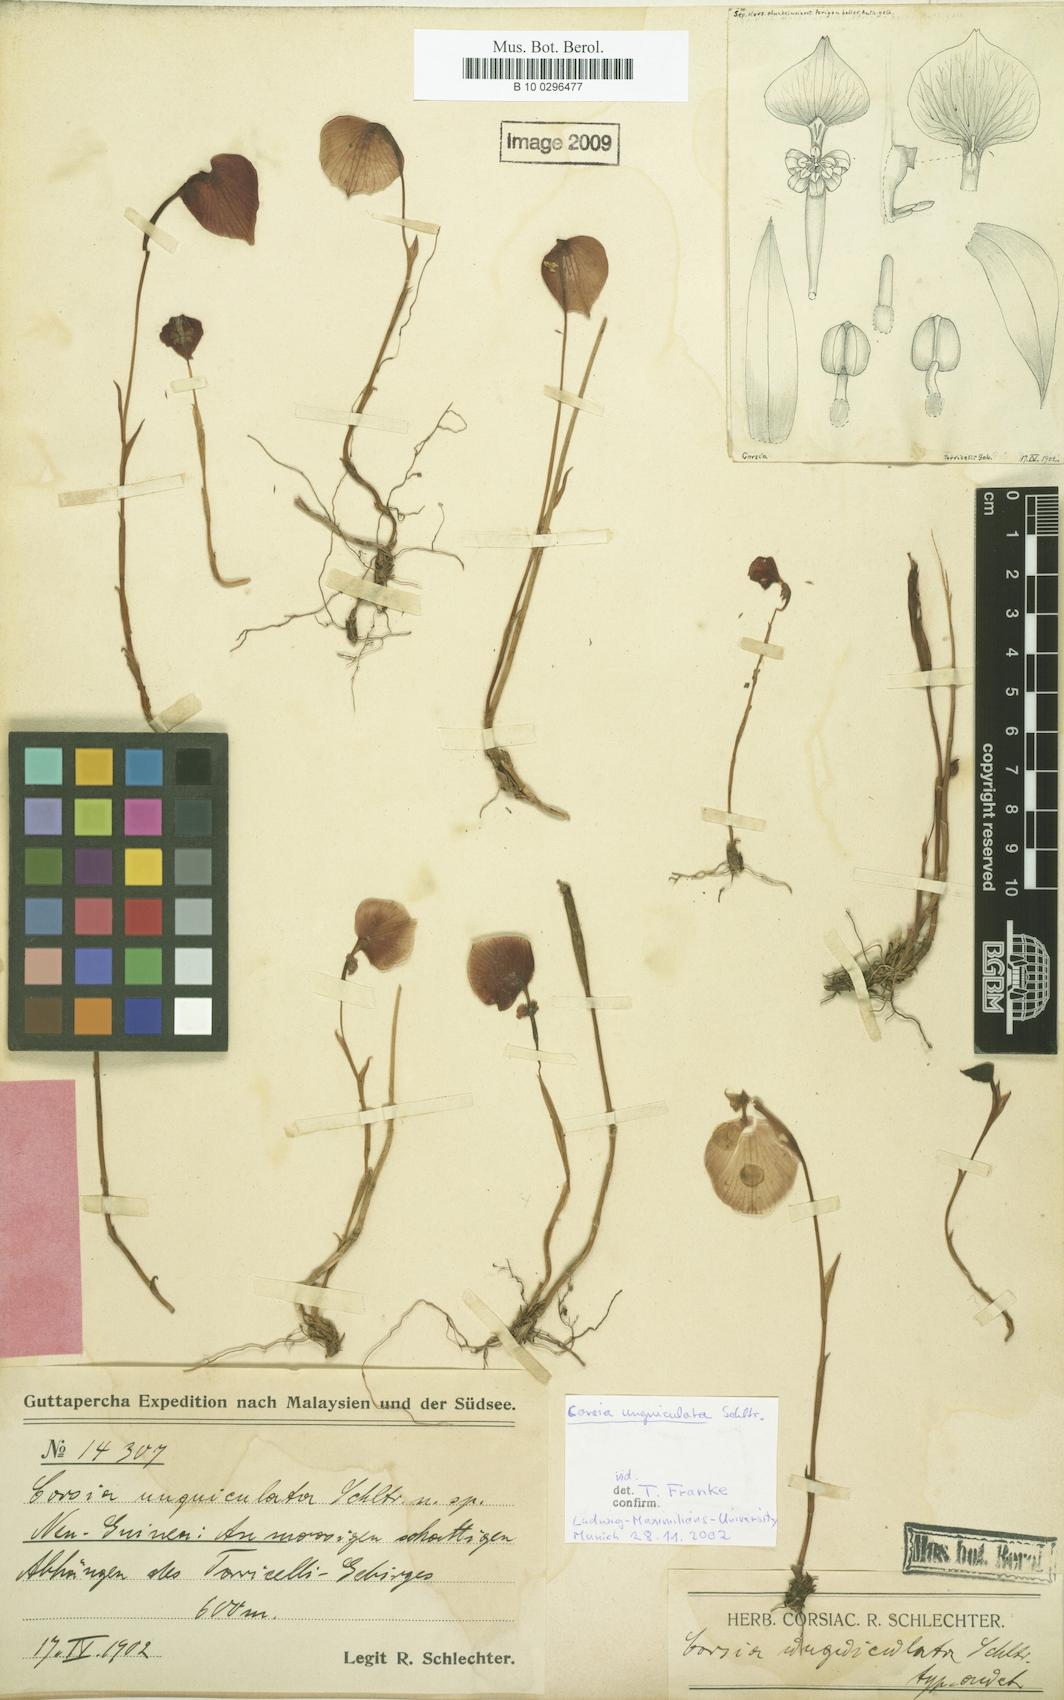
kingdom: Plantae
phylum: Tracheophyta
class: Liliopsida
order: Liliales
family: Corsiaceae
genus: Corsia
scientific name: Corsia unguiculata
